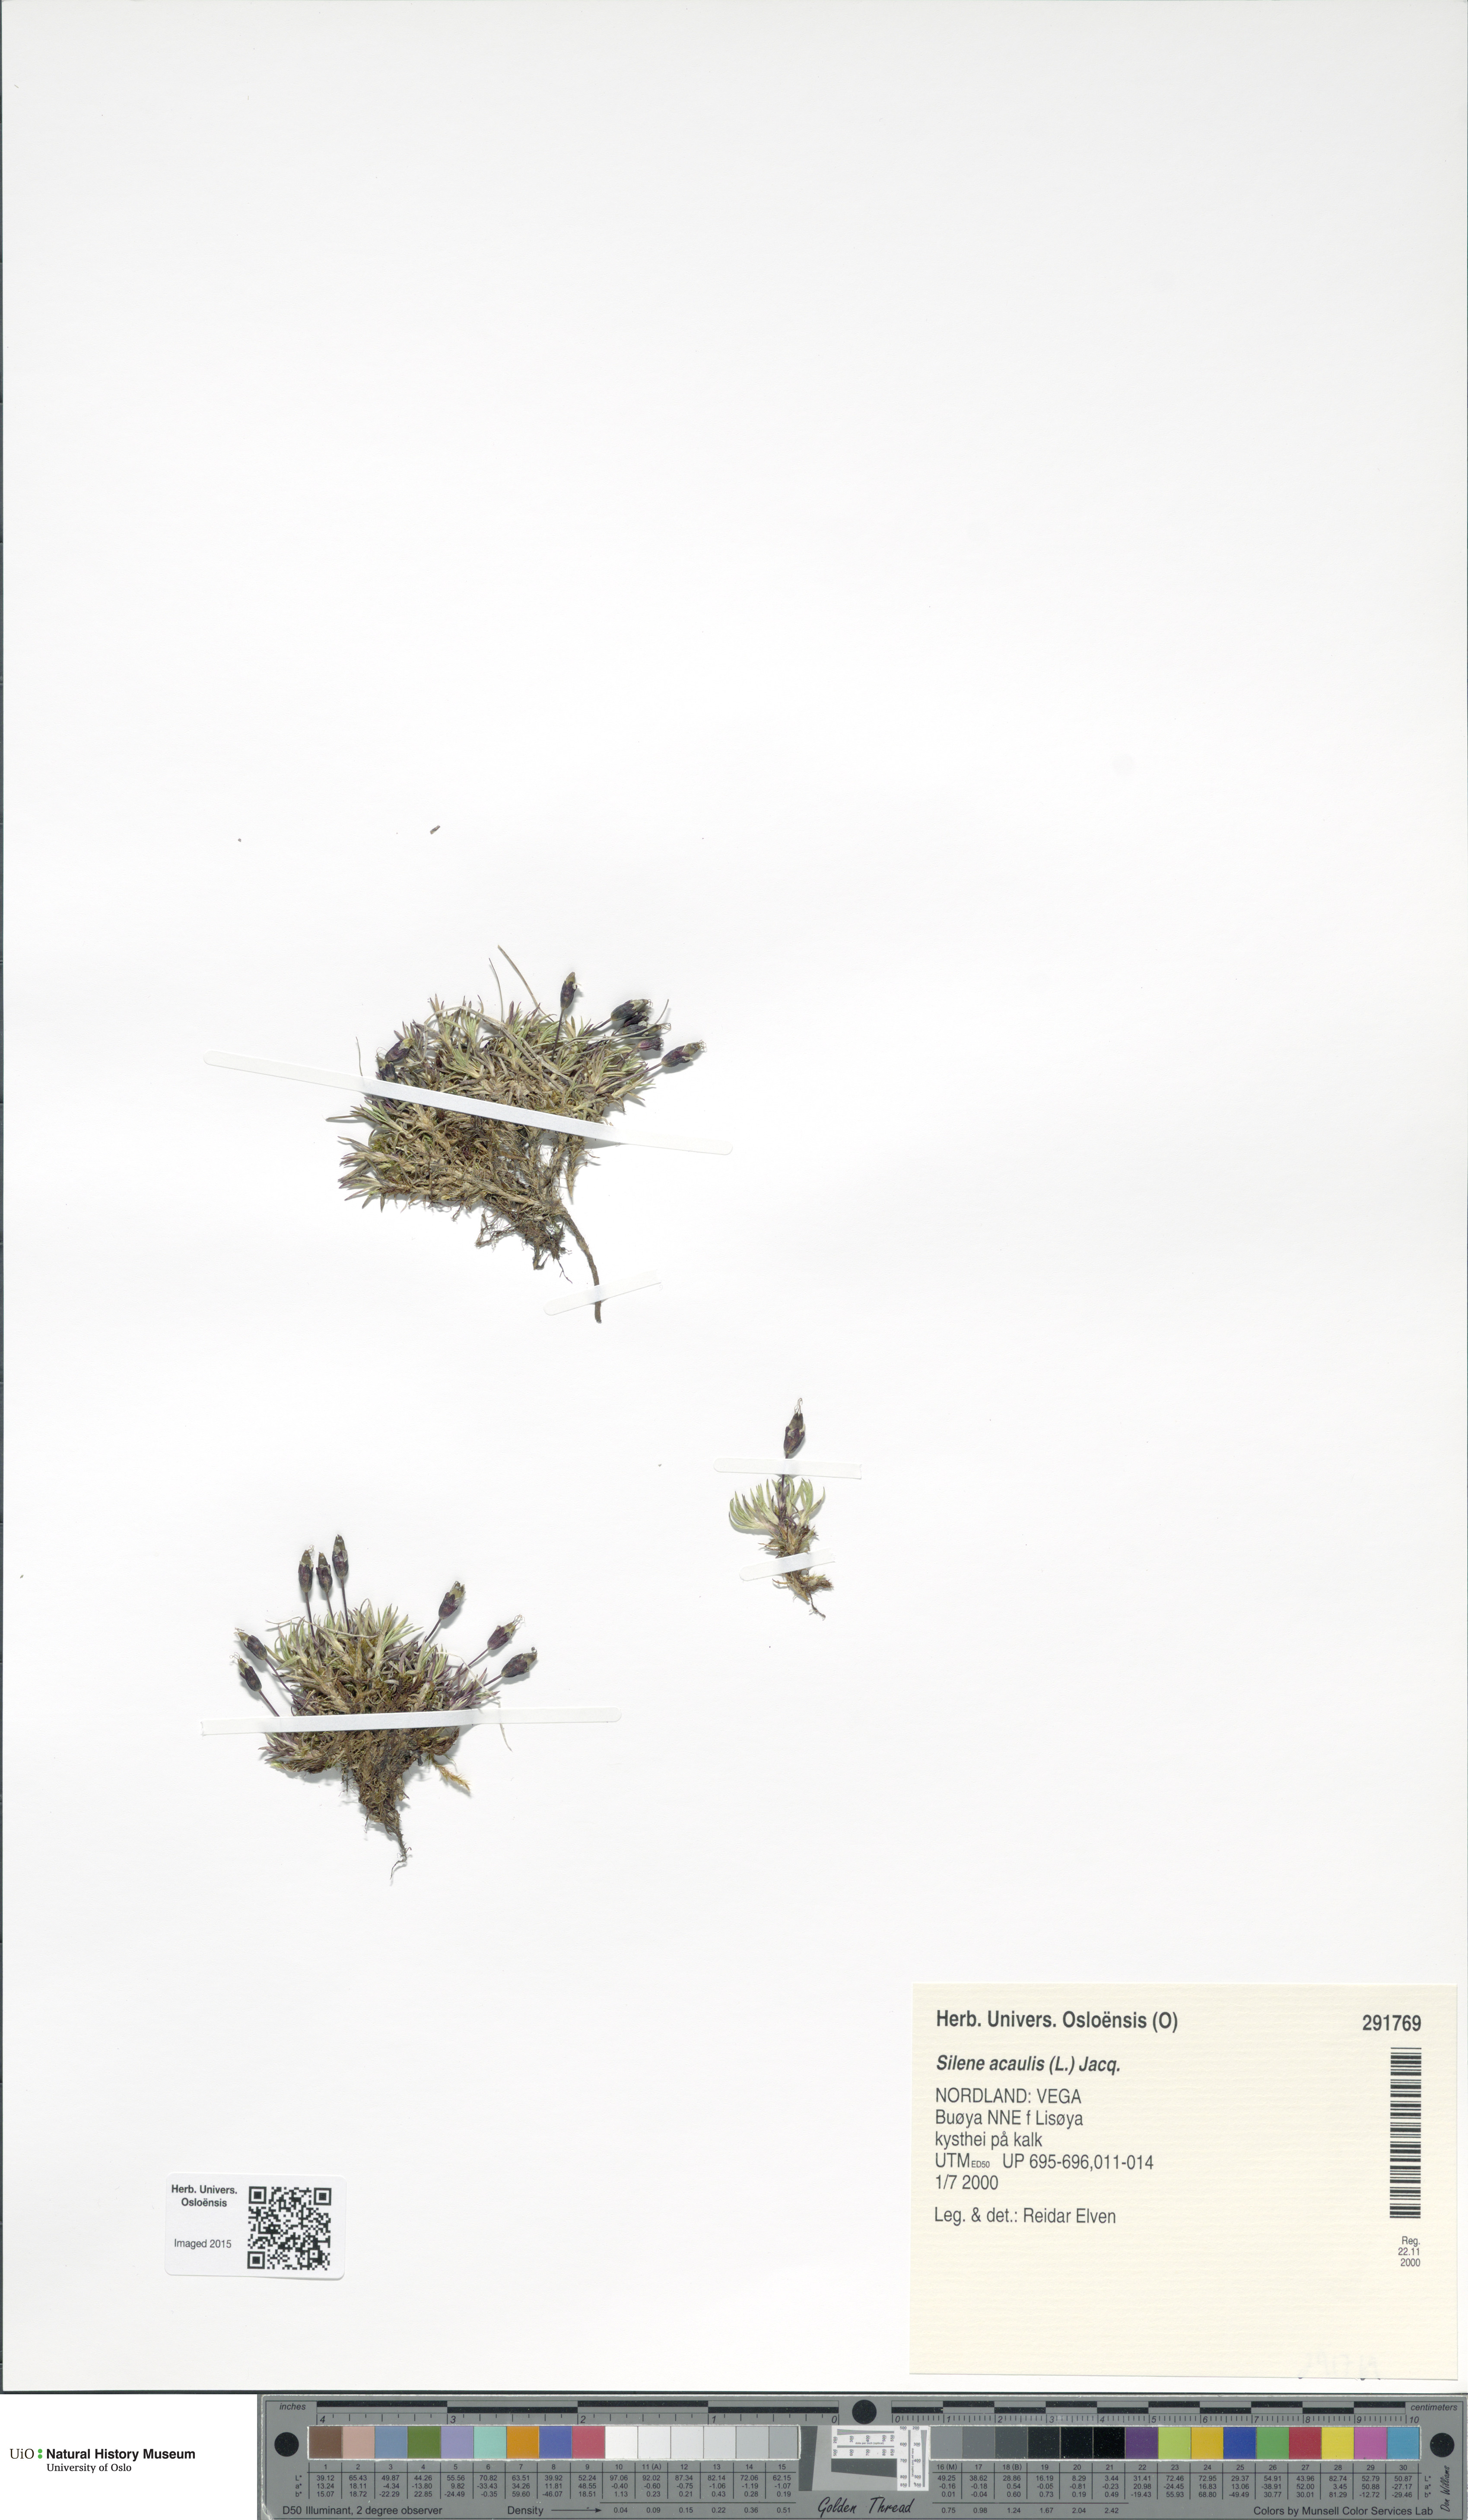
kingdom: Plantae
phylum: Tracheophyta
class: Magnoliopsida
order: Caryophyllales
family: Caryophyllaceae
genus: Silene
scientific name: Silene acaulis
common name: Moss campion
